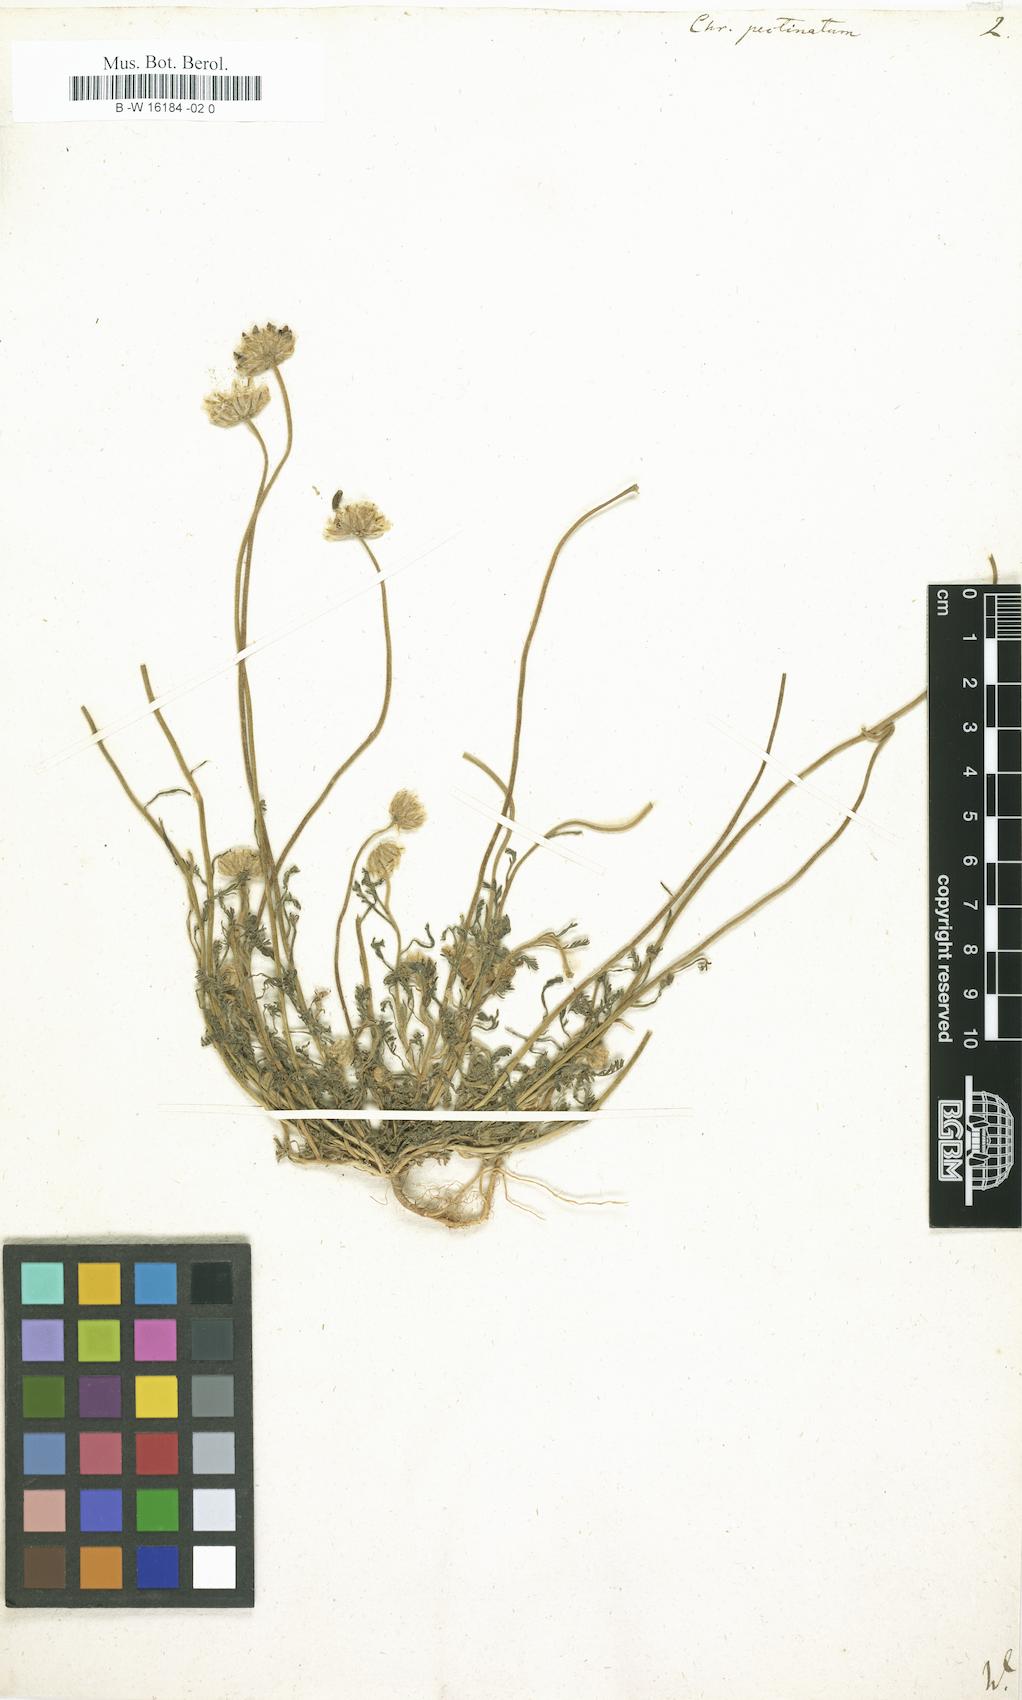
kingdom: Plantae
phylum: Tracheophyta
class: Magnoliopsida
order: Asterales
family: Asteraceae
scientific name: Asteraceae
